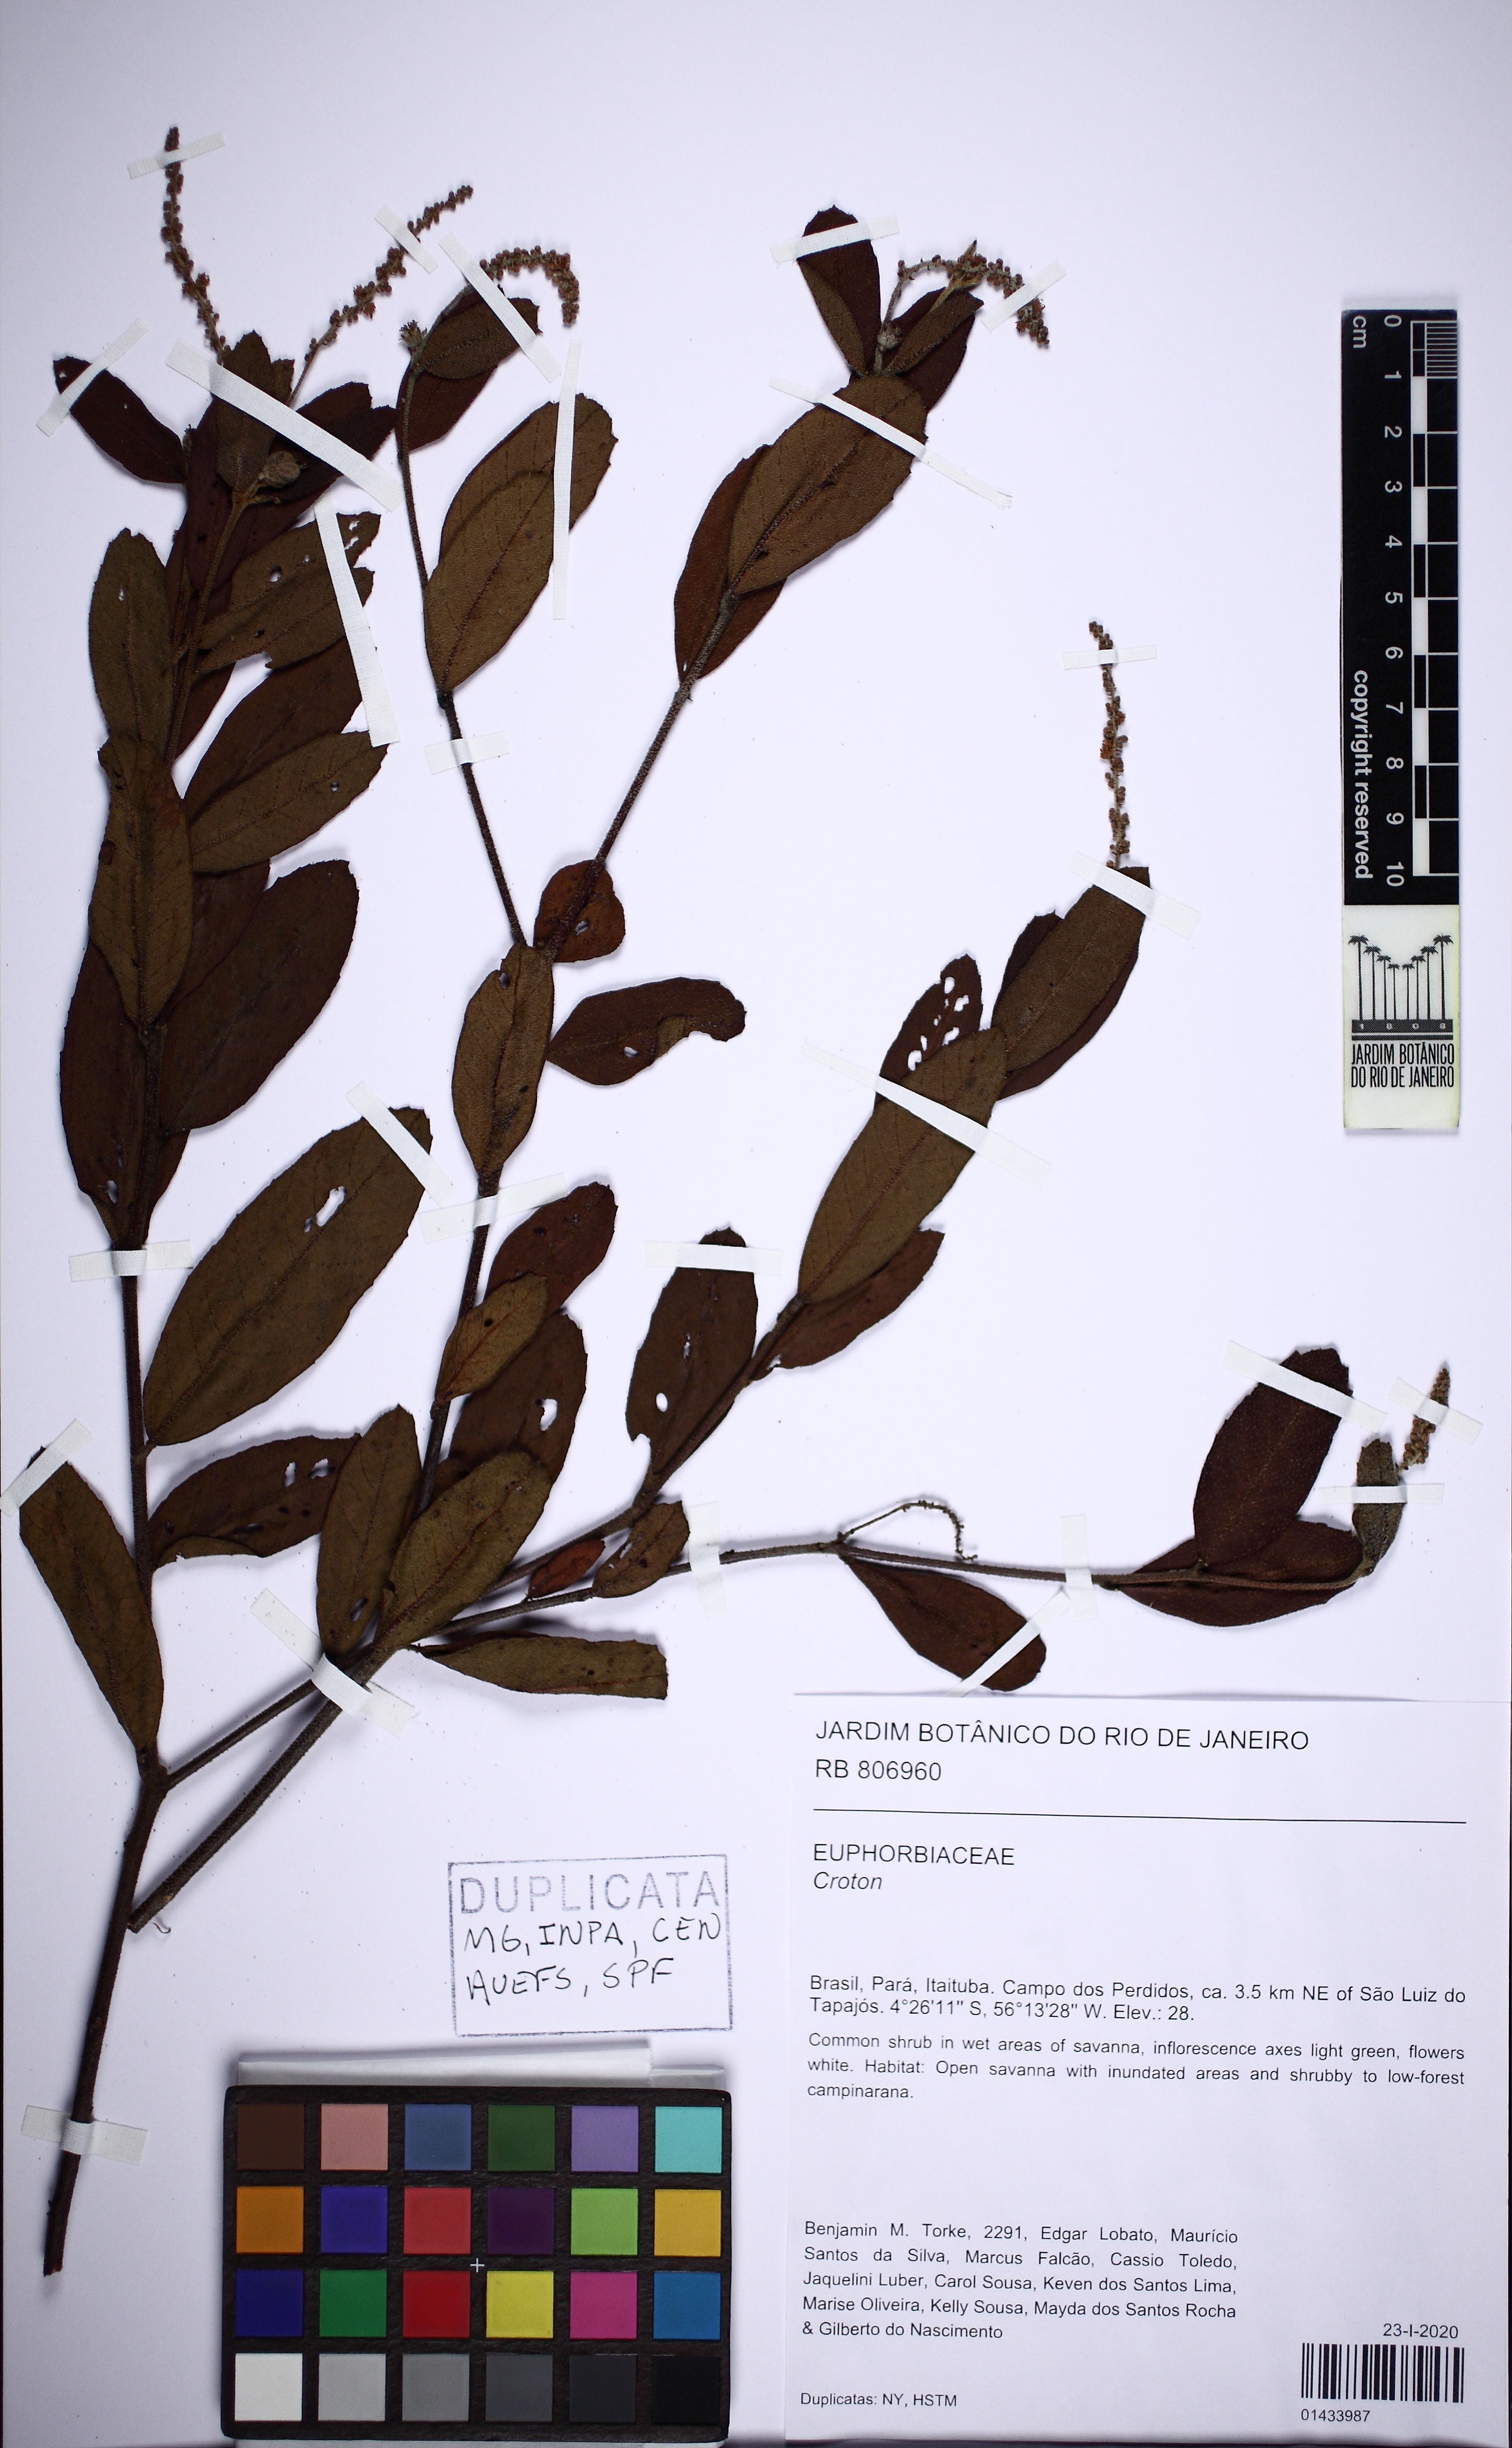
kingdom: Plantae
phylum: Tracheophyta
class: Magnoliopsida
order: Malpighiales
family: Euphorbiaceae
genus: Croton
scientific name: Croton
